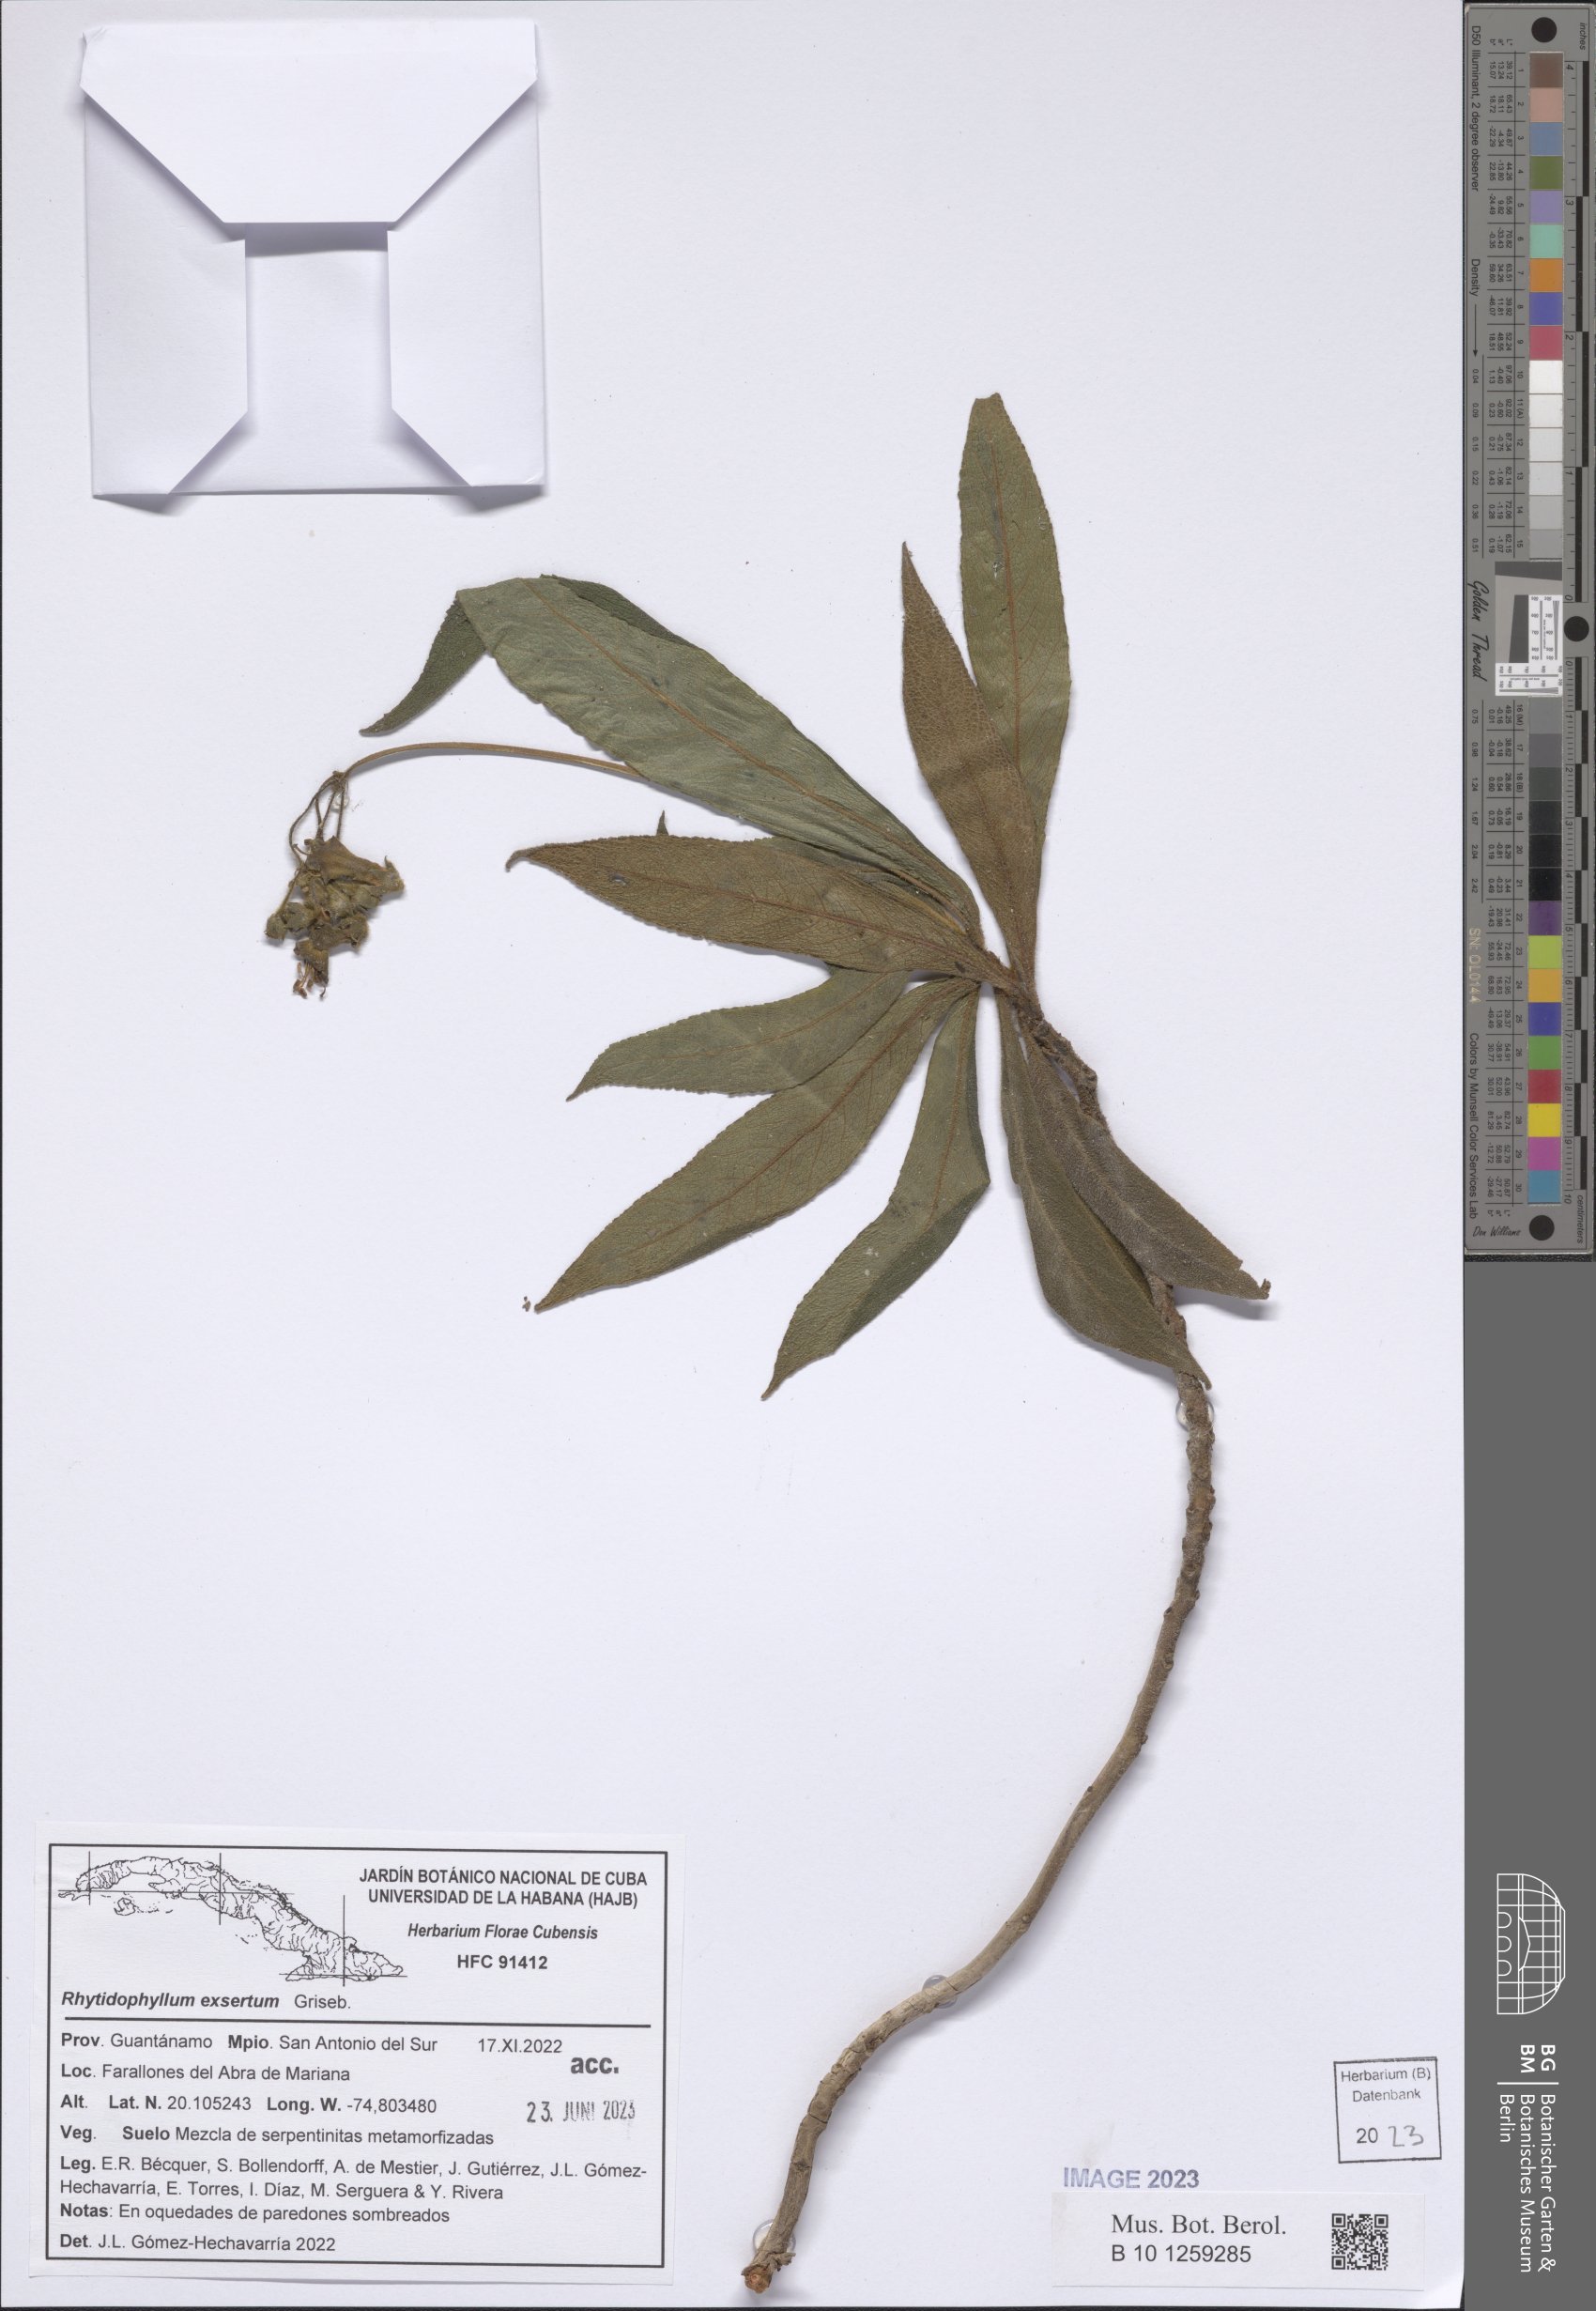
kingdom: Plantae
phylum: Tracheophyta
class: Magnoliopsida
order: Lamiales
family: Gesneriaceae
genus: Rhytidophyllum
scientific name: Rhytidophyllum exsertum
